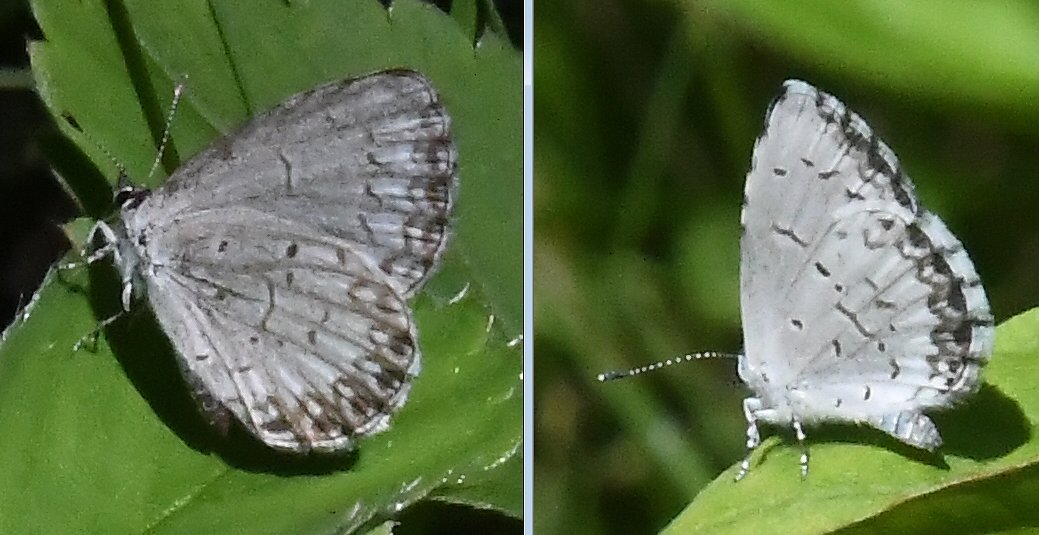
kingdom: Animalia
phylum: Arthropoda
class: Insecta
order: Lepidoptera
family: Lycaenidae
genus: Cyaniris
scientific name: Cyaniris neglecta
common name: Summer Azure
